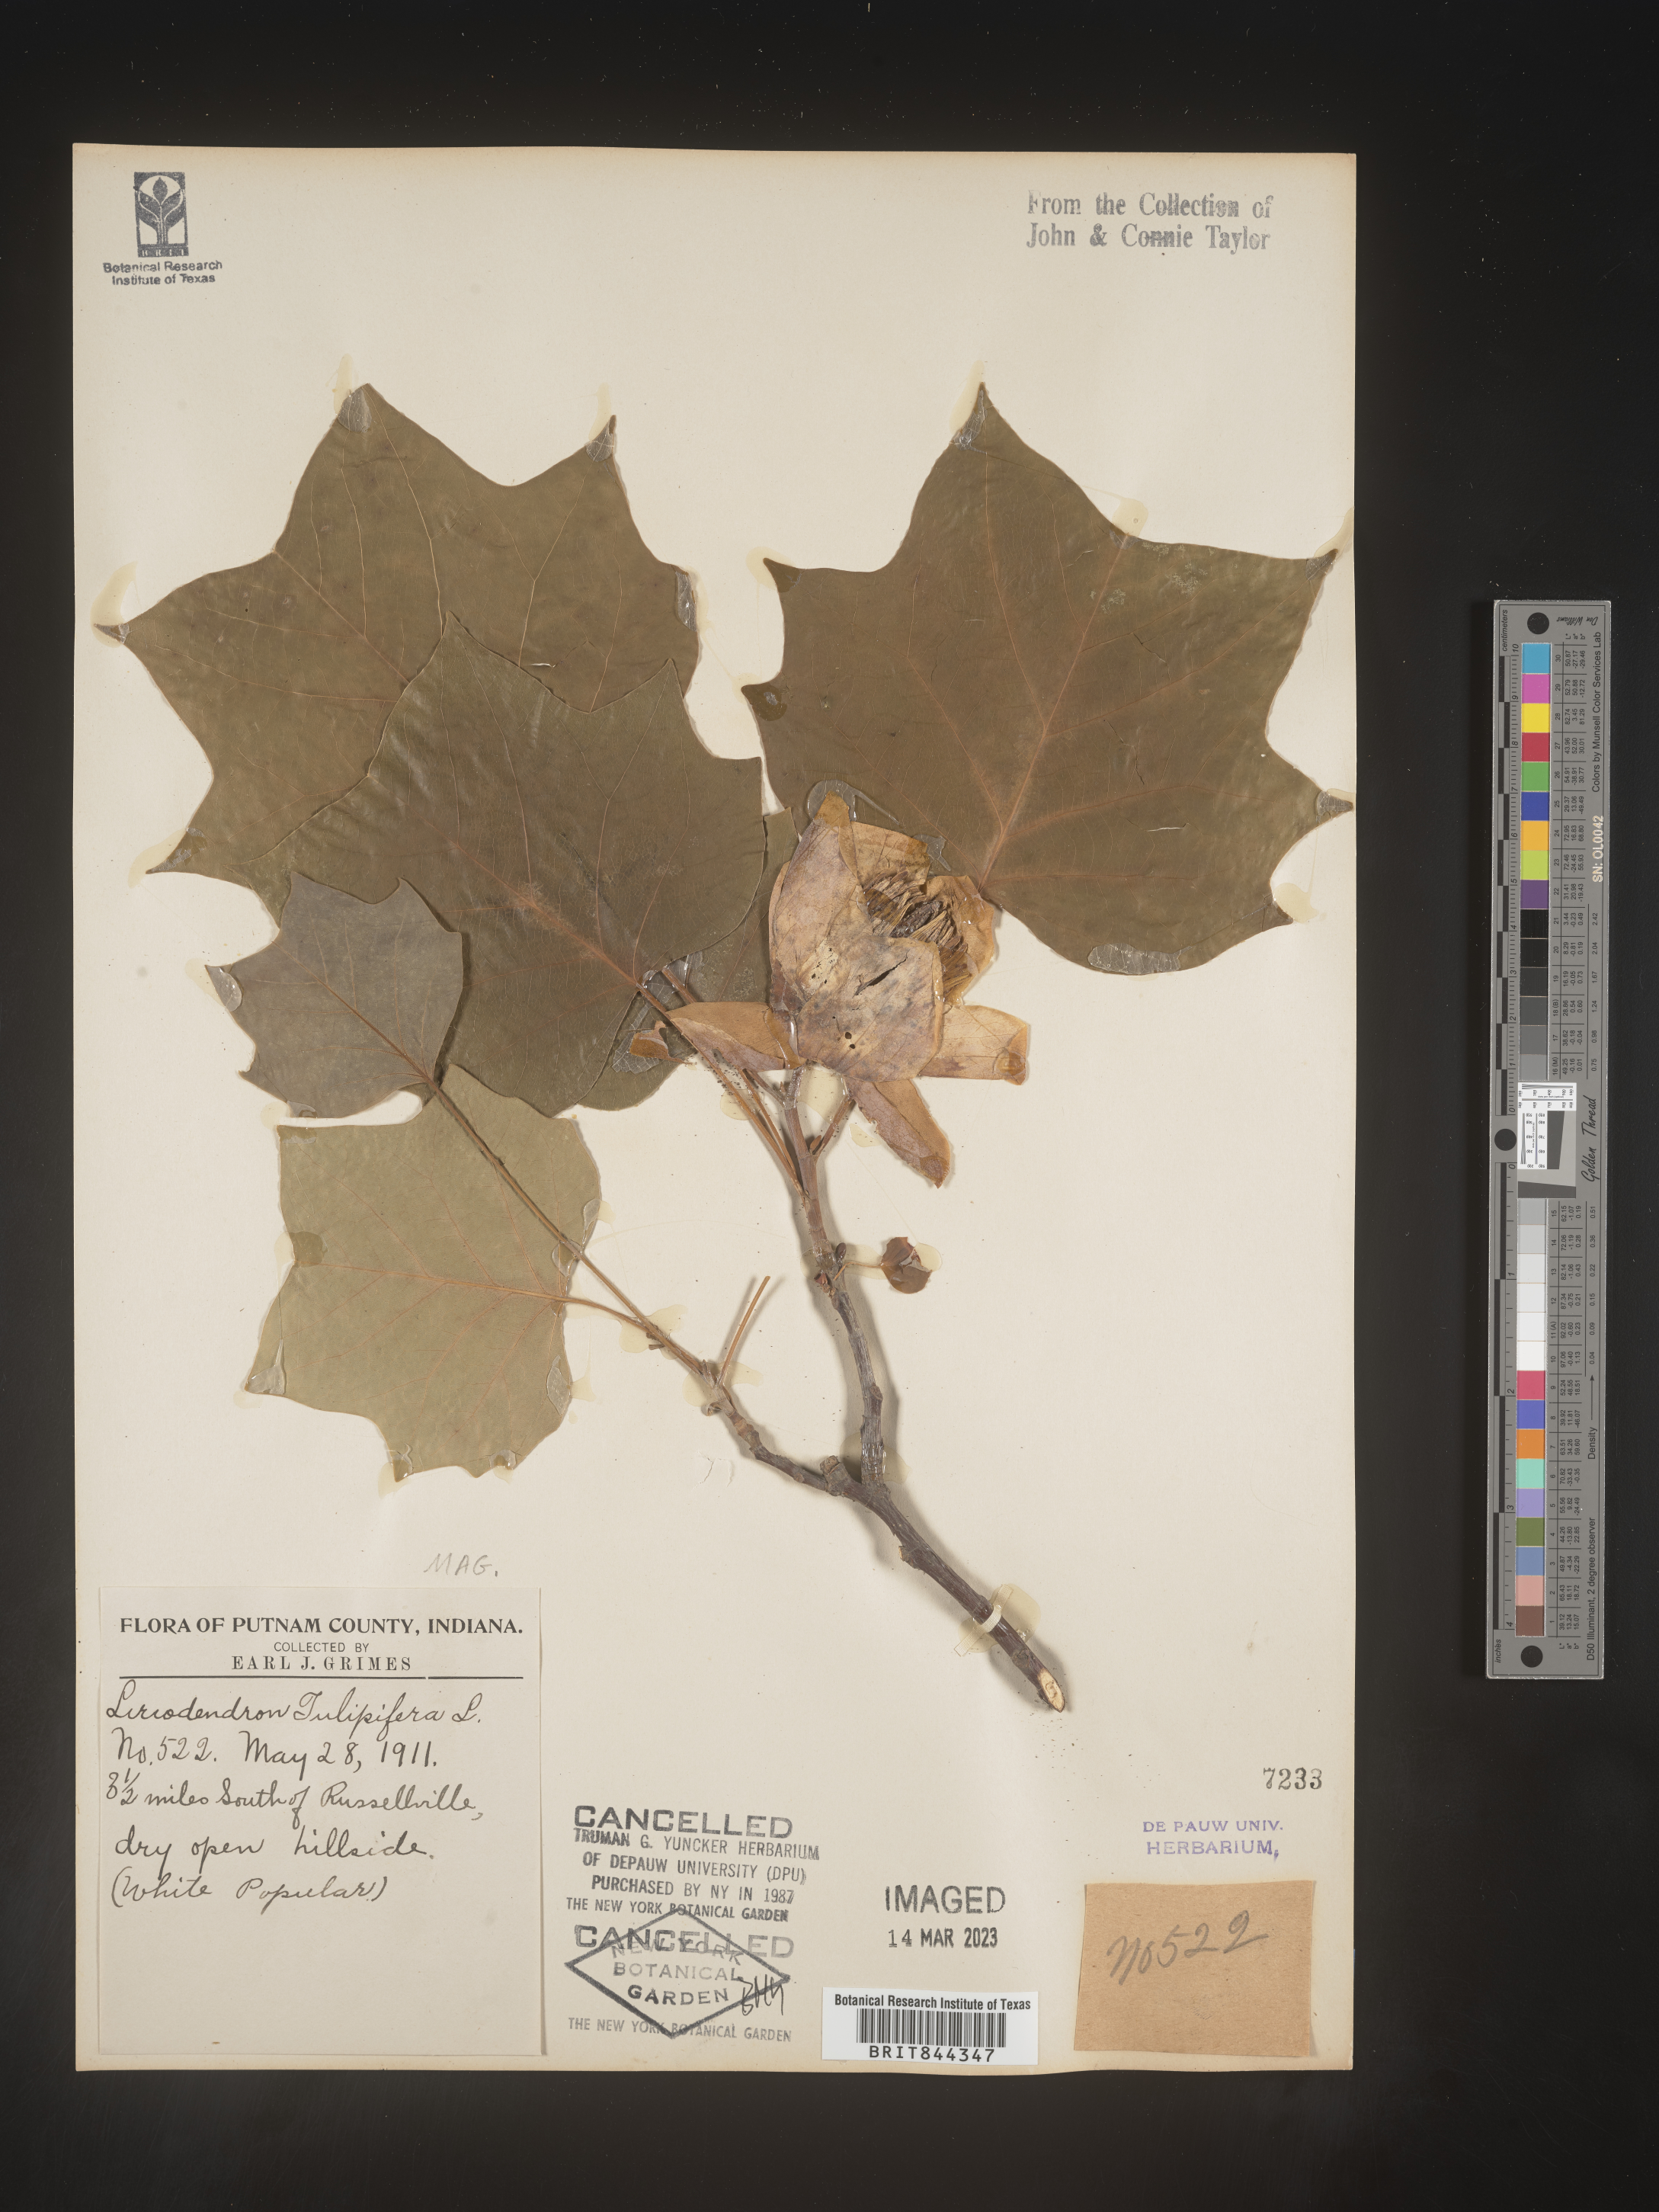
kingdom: Plantae
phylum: Tracheophyta
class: Magnoliopsida
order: Magnoliales
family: Magnoliaceae
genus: Liriodendron
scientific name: Liriodendron tulipifera
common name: Tulip tree
